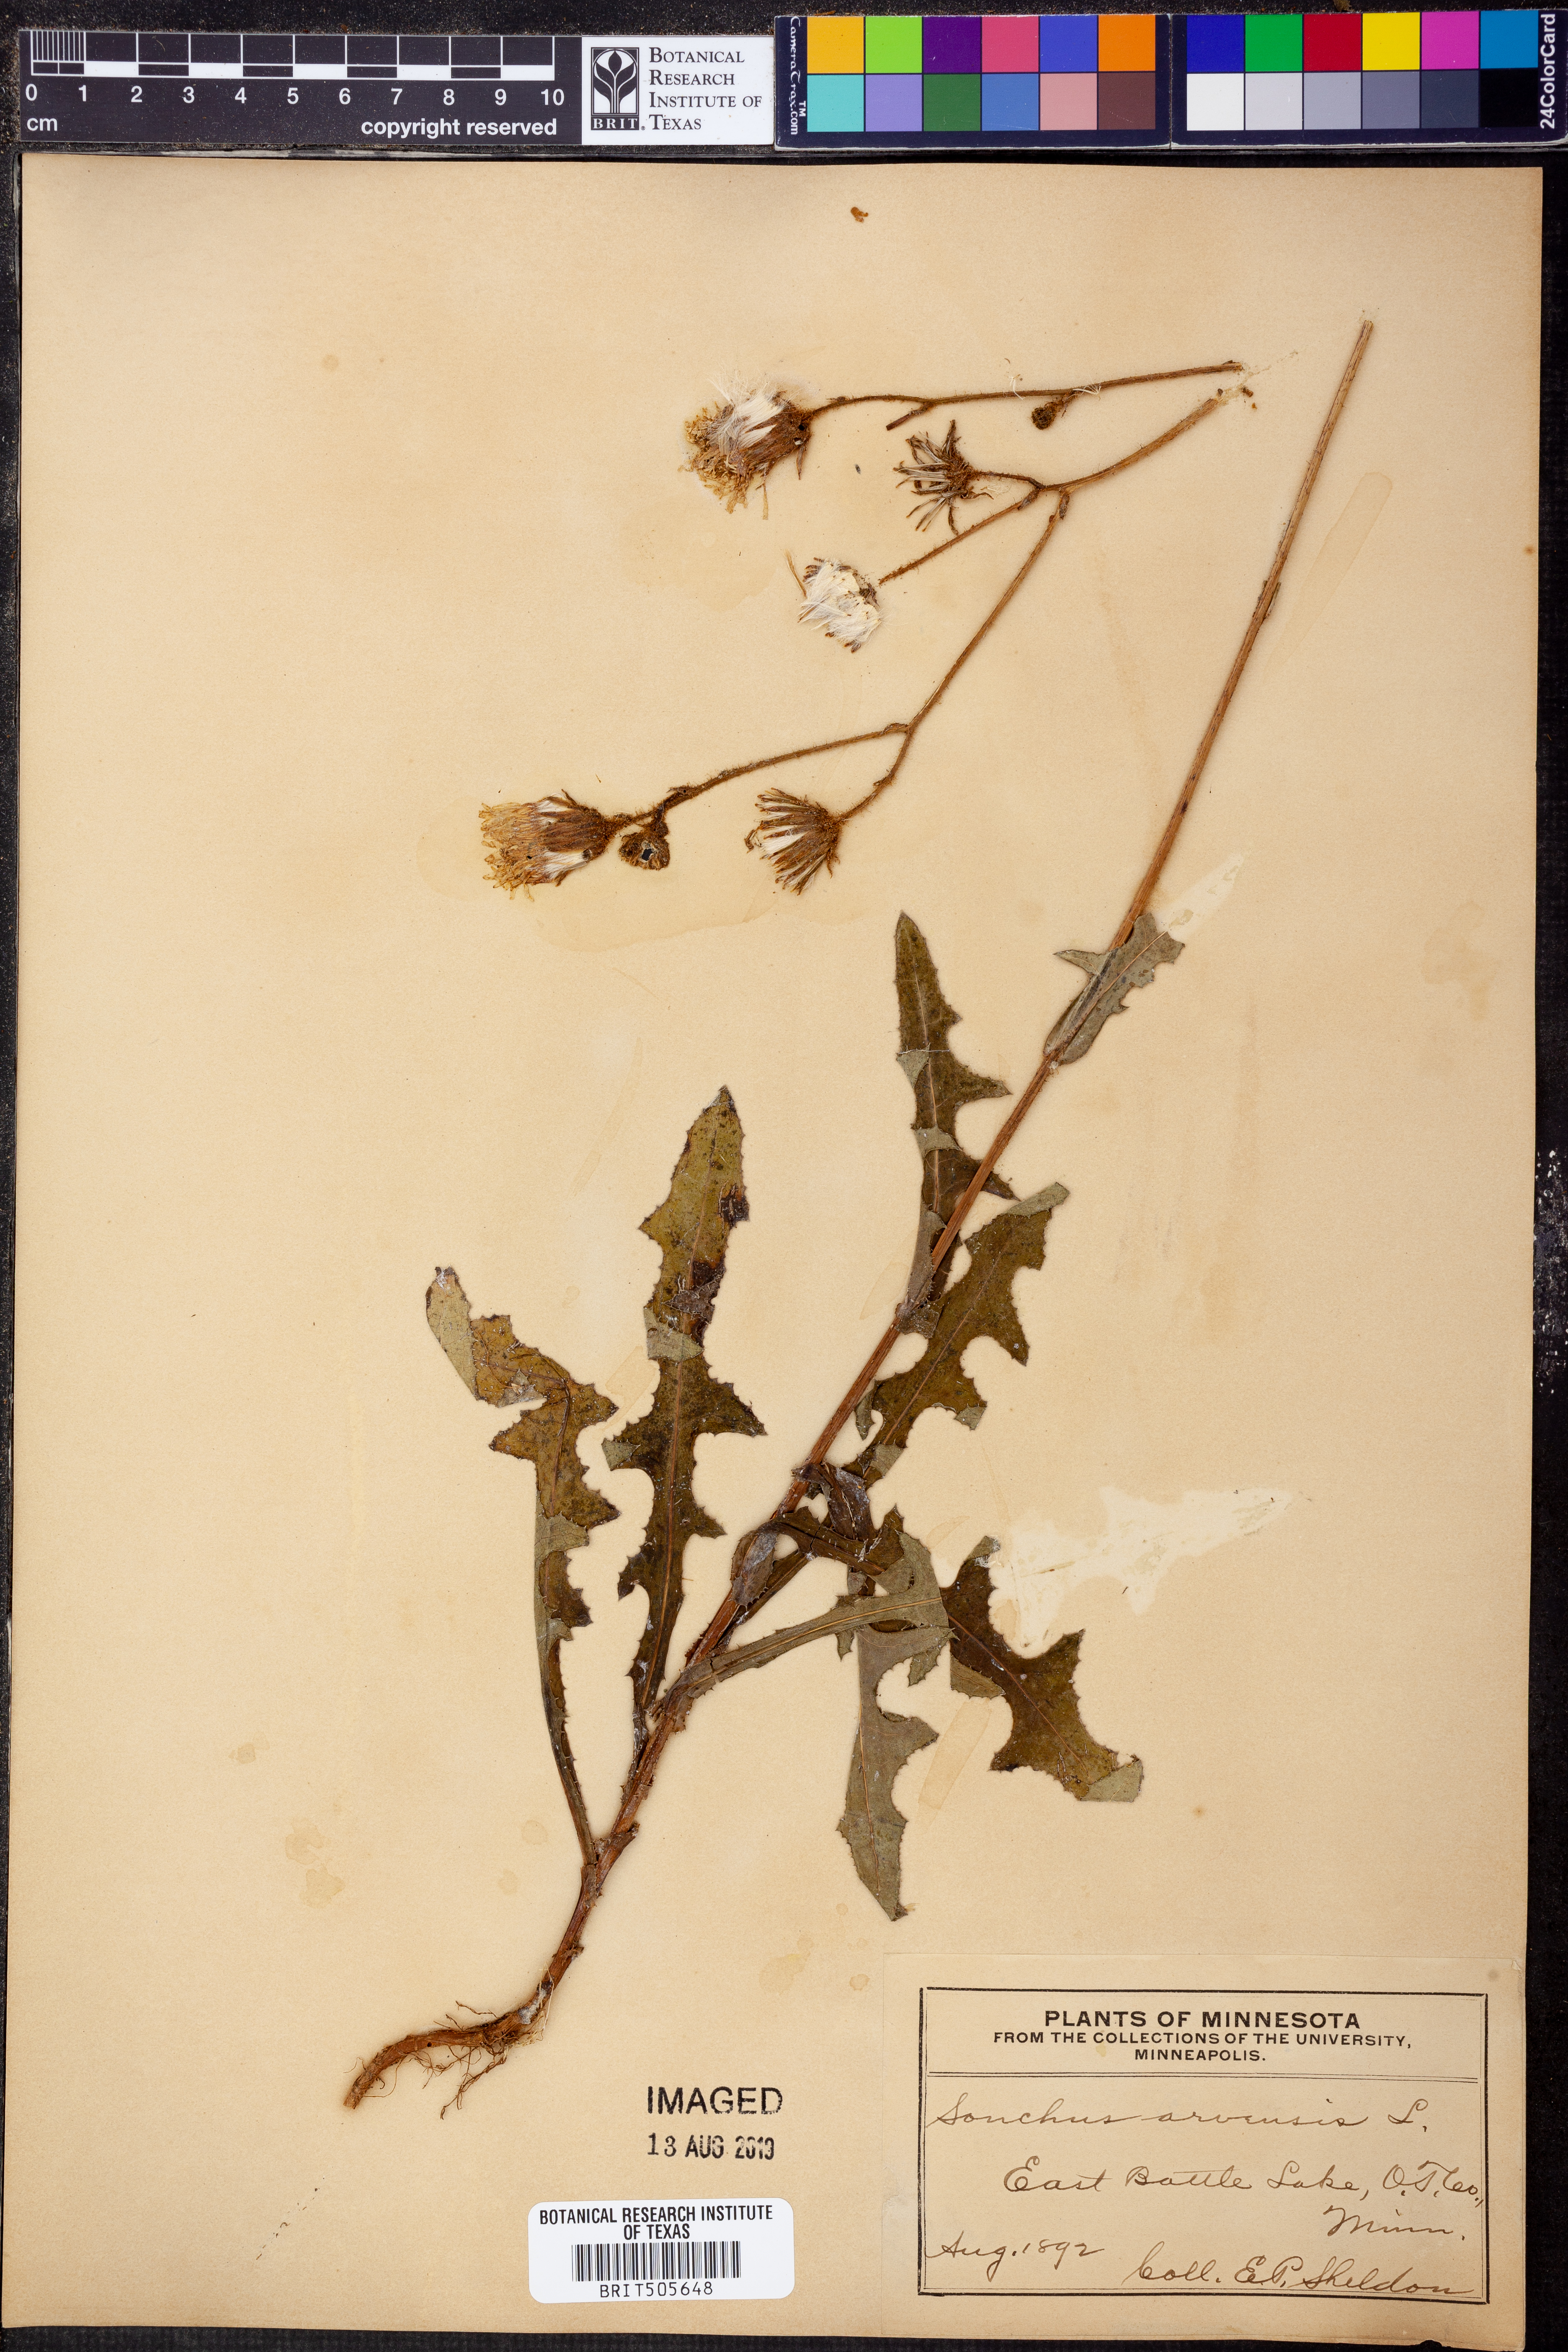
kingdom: Plantae
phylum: Tracheophyta
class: Magnoliopsida
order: Asterales
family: Asteraceae
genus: Sonchus
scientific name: Sonchus arvensis
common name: Perennial sow-thistle
